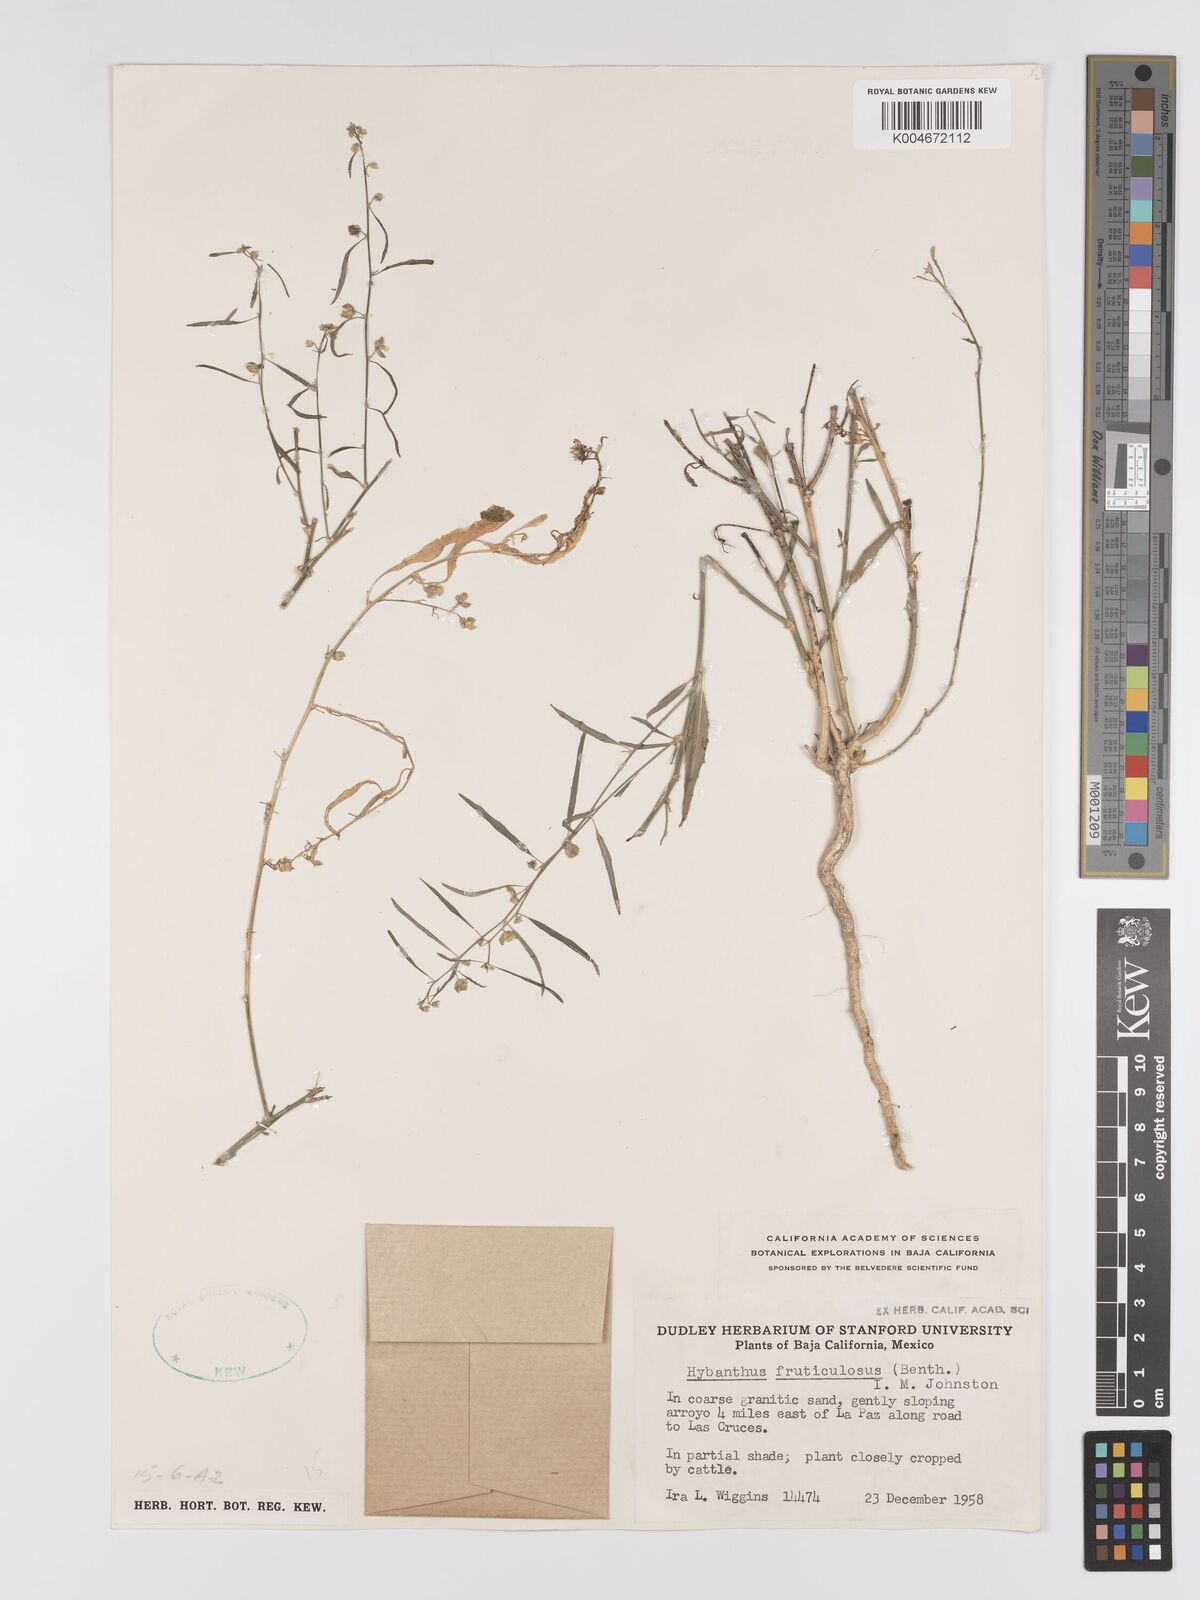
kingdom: Plantae
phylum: Tracheophyta
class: Magnoliopsida
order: Malpighiales
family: Violaceae
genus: Hybanthus
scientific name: Hybanthus fruticulosus
